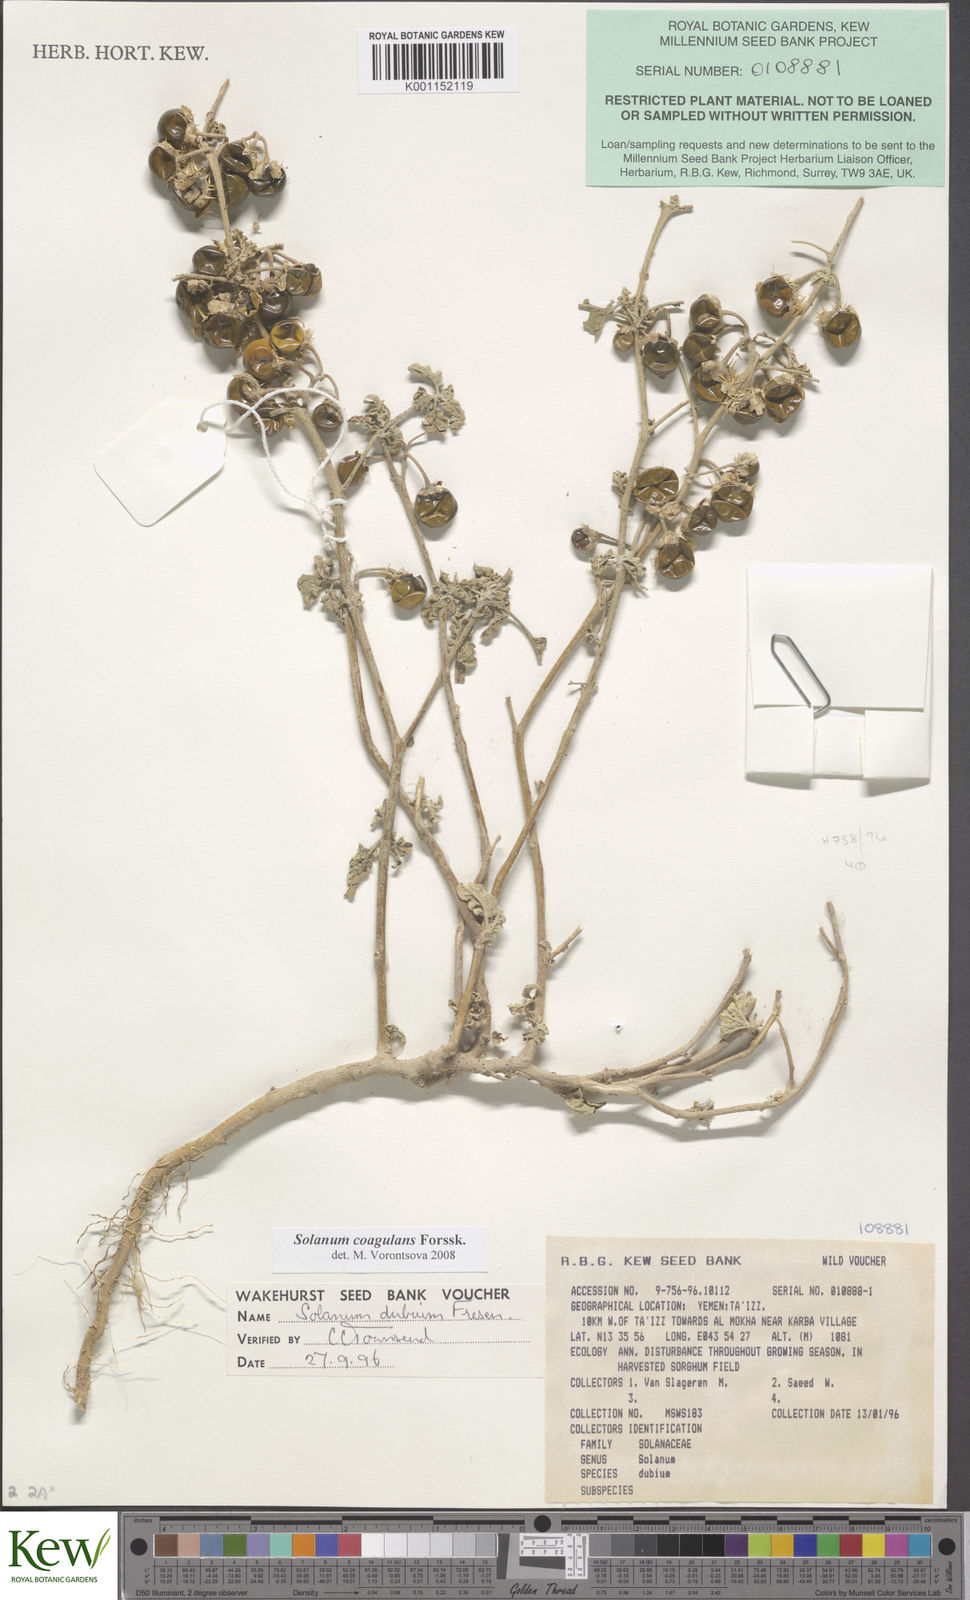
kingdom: Plantae
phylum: Tracheophyta
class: Magnoliopsida
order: Solanales
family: Solanaceae
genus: Solanum
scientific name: Solanum coagulans
